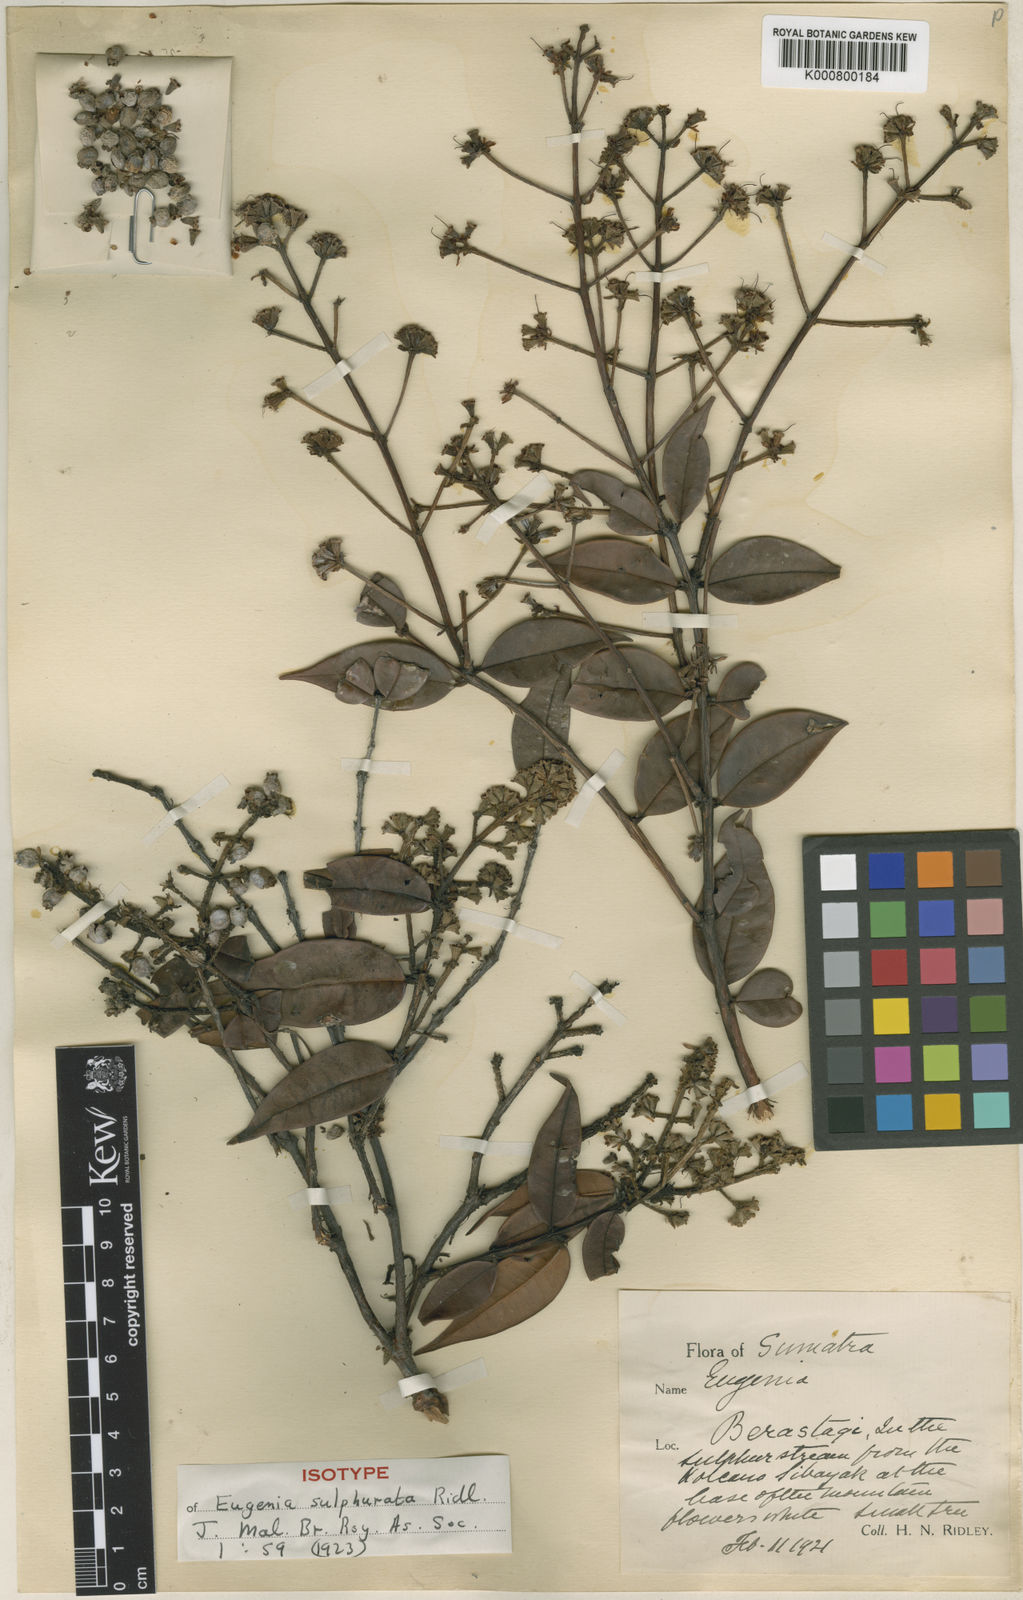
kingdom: Plantae
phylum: Tracheophyta
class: Magnoliopsida
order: Myrtales
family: Myrtaceae
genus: Syzygium
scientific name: Syzygium sulphuratum
